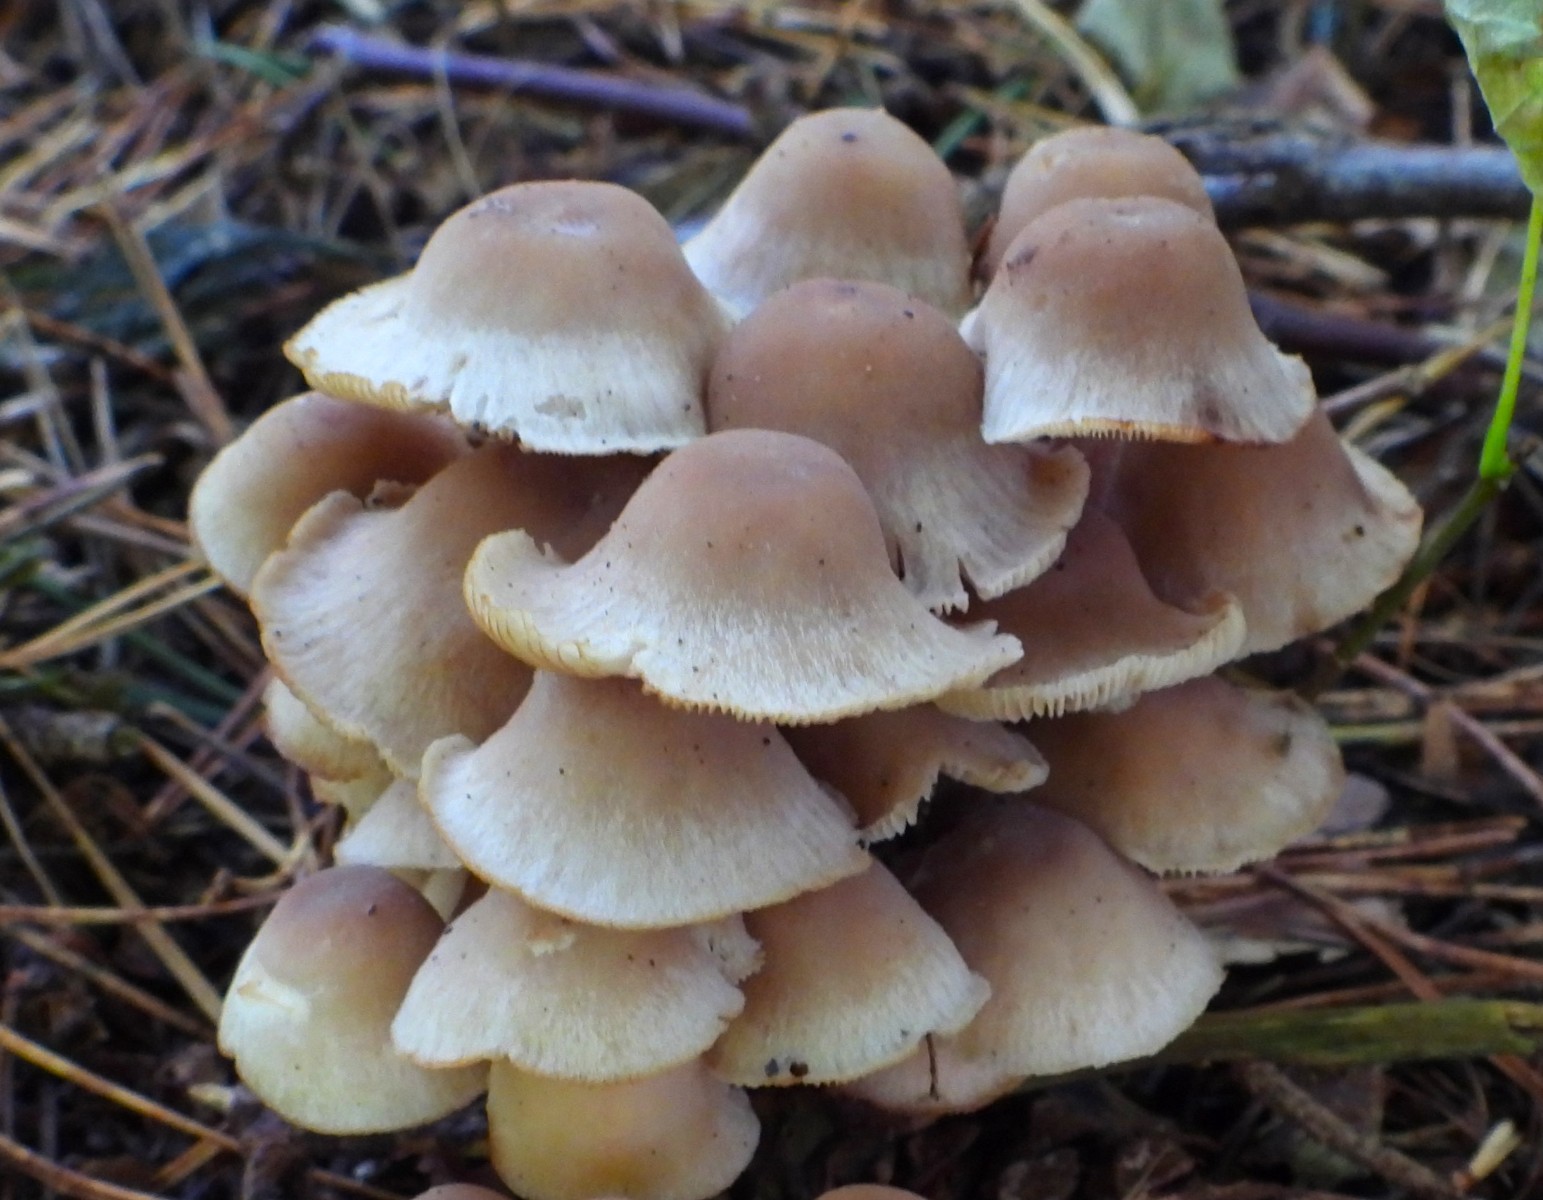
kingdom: Fungi
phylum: Basidiomycota
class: Agaricomycetes
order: Agaricales
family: Omphalotaceae
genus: Collybiopsis
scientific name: Collybiopsis confluens
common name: knippe-fladhat
